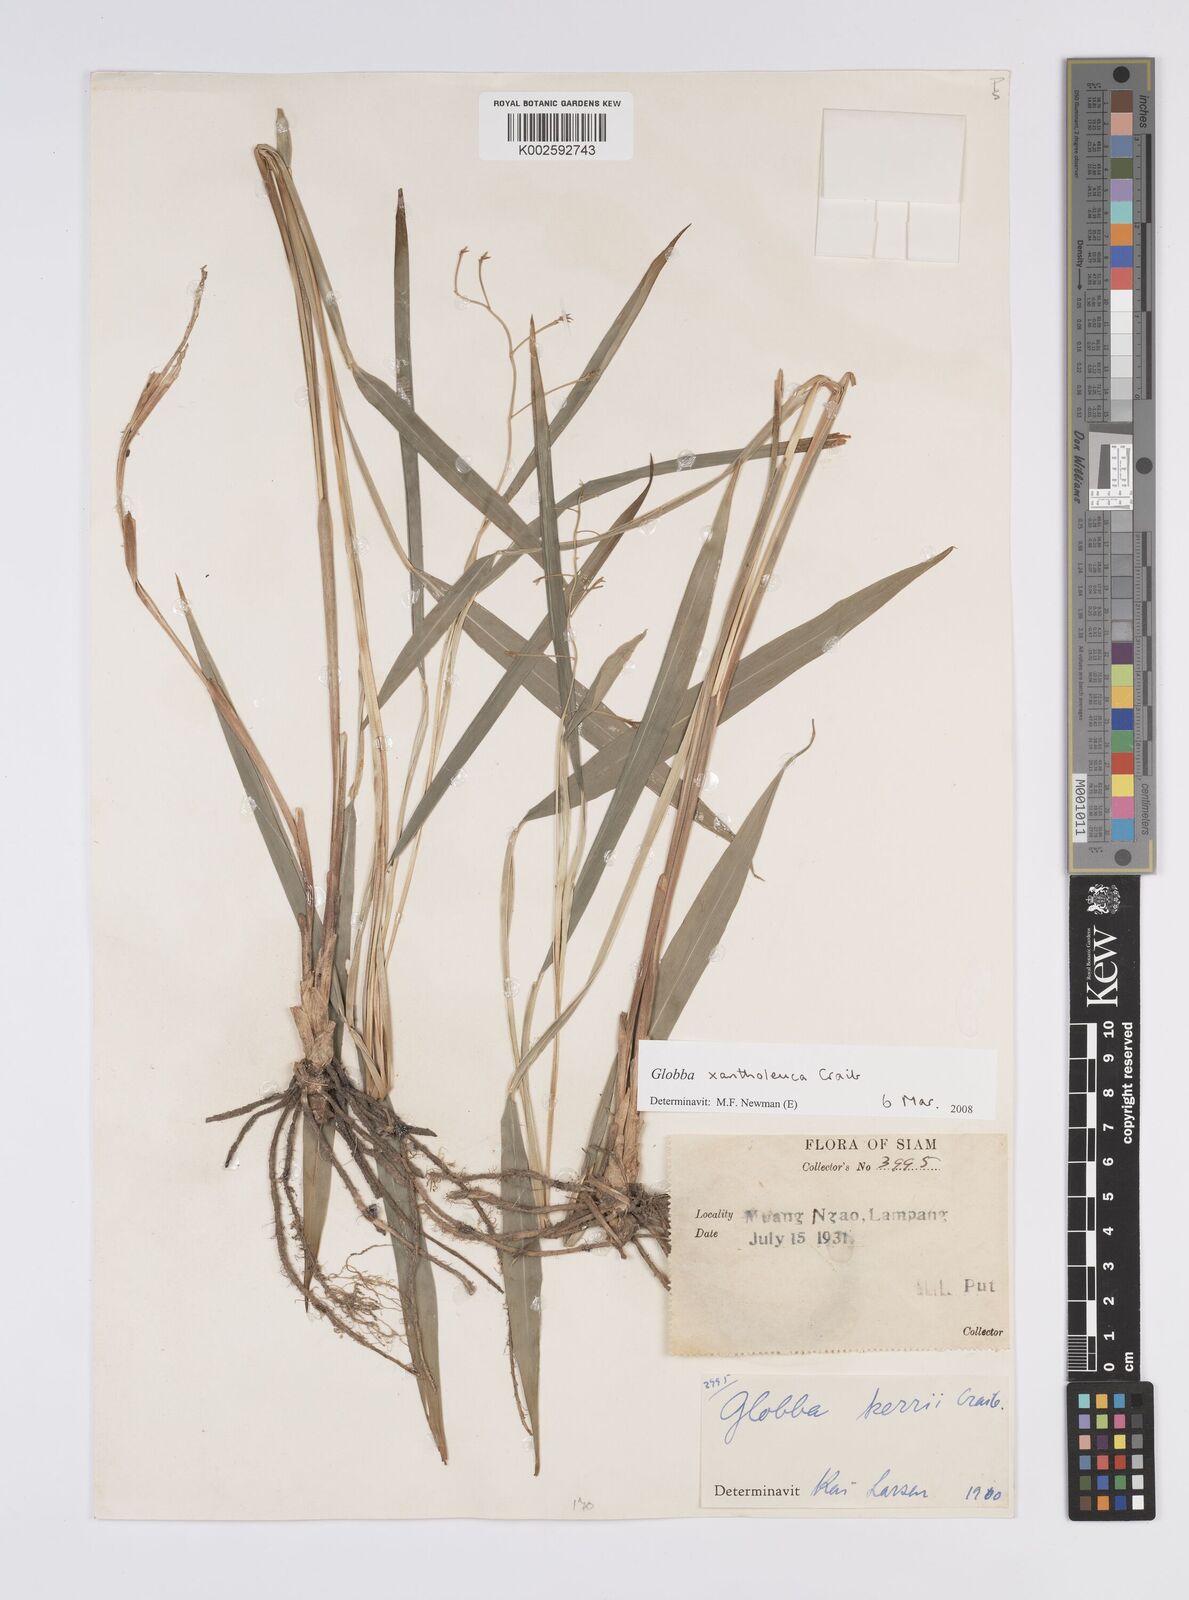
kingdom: Plantae
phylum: Tracheophyta
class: Liliopsida
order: Zingiberales
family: Zingiberaceae
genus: Globba
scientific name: Globba xantholeuca
